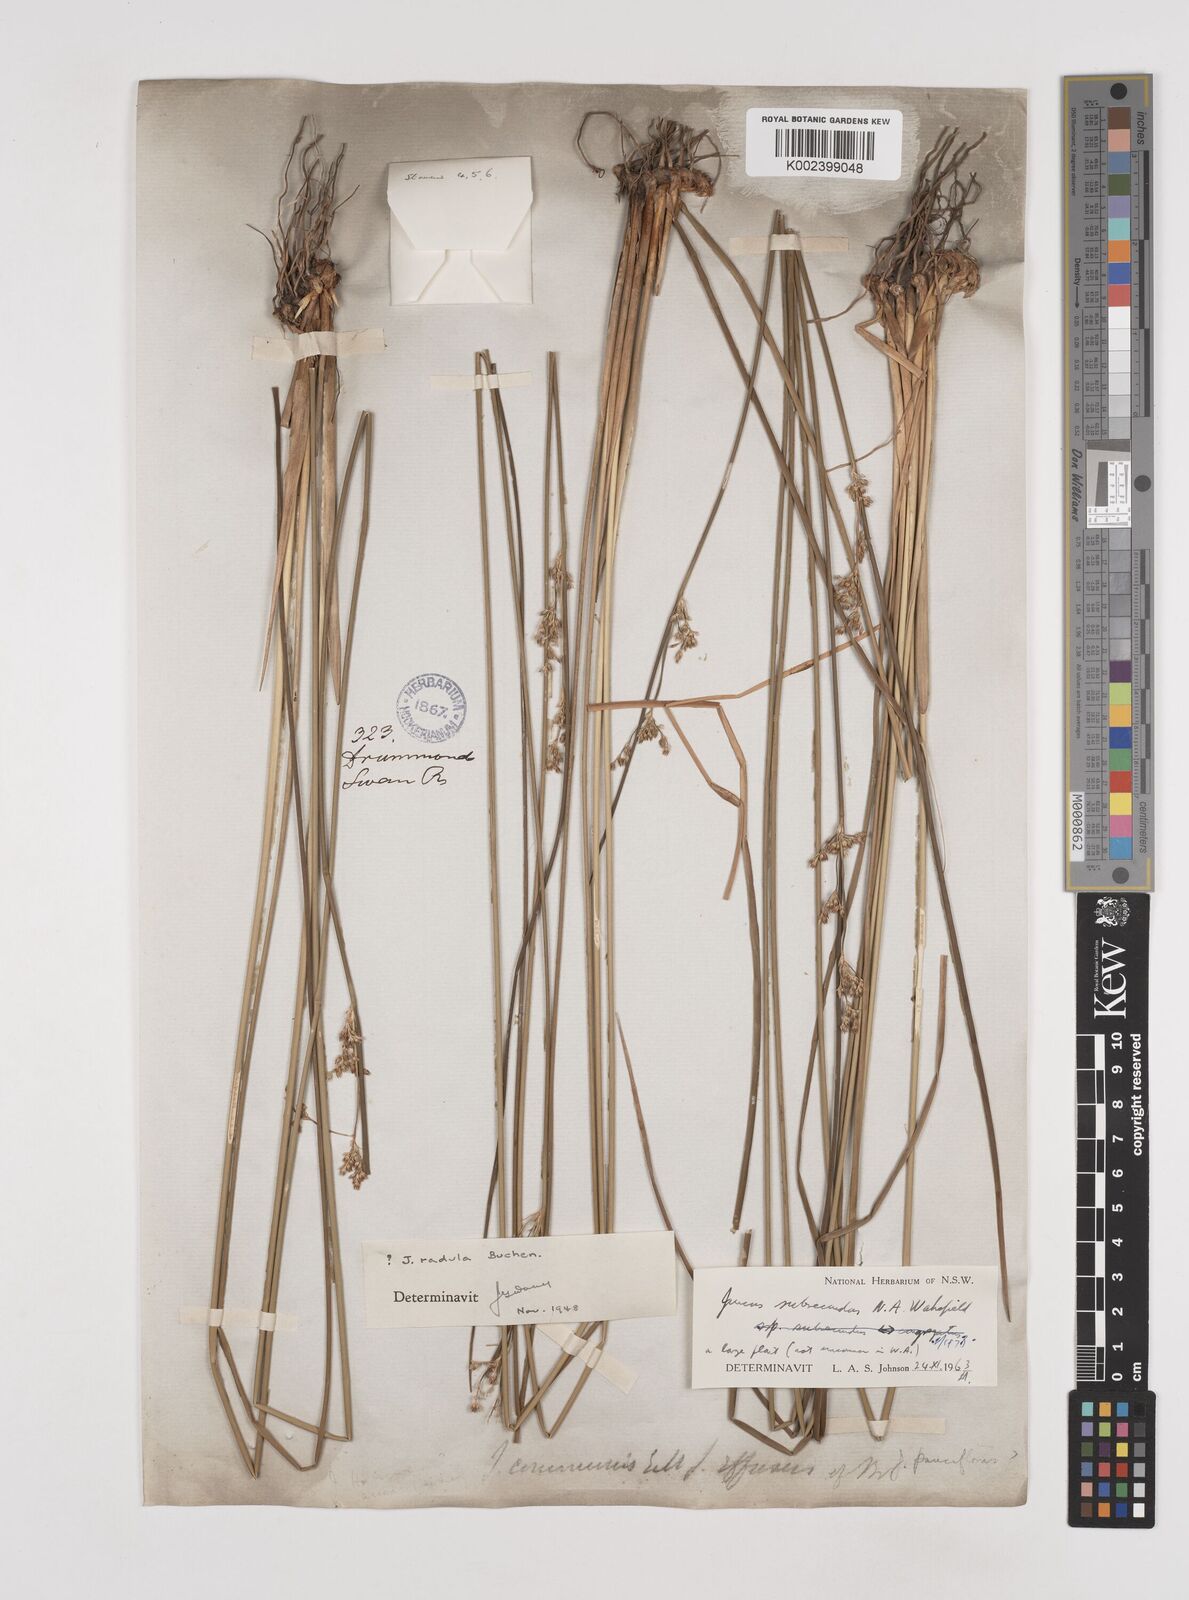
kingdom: Plantae
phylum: Tracheophyta
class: Liliopsida
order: Poales
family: Juncaceae
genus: Juncus
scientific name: Juncus subsecundus
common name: Fingered rush
